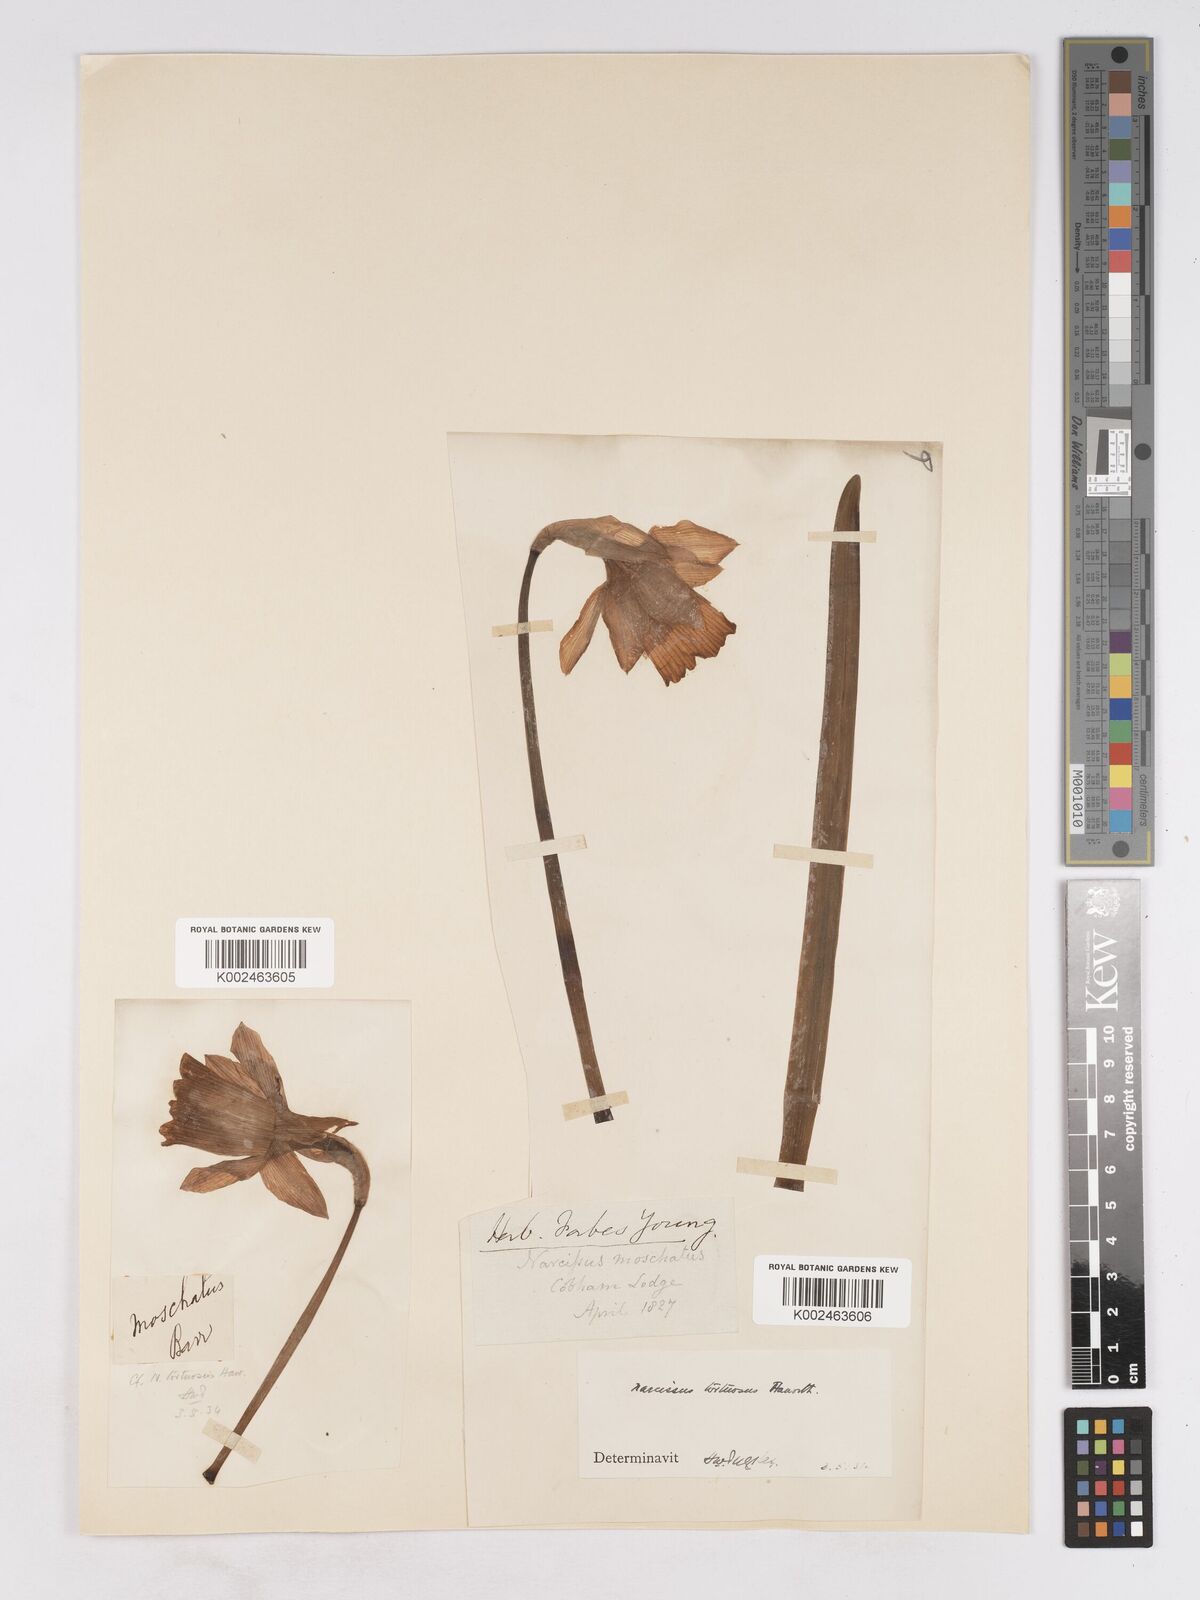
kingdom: Plantae
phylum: Tracheophyta
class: Liliopsida
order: Asparagales
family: Amaryllidaceae
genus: Narcissus
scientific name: Narcissus moschatus
